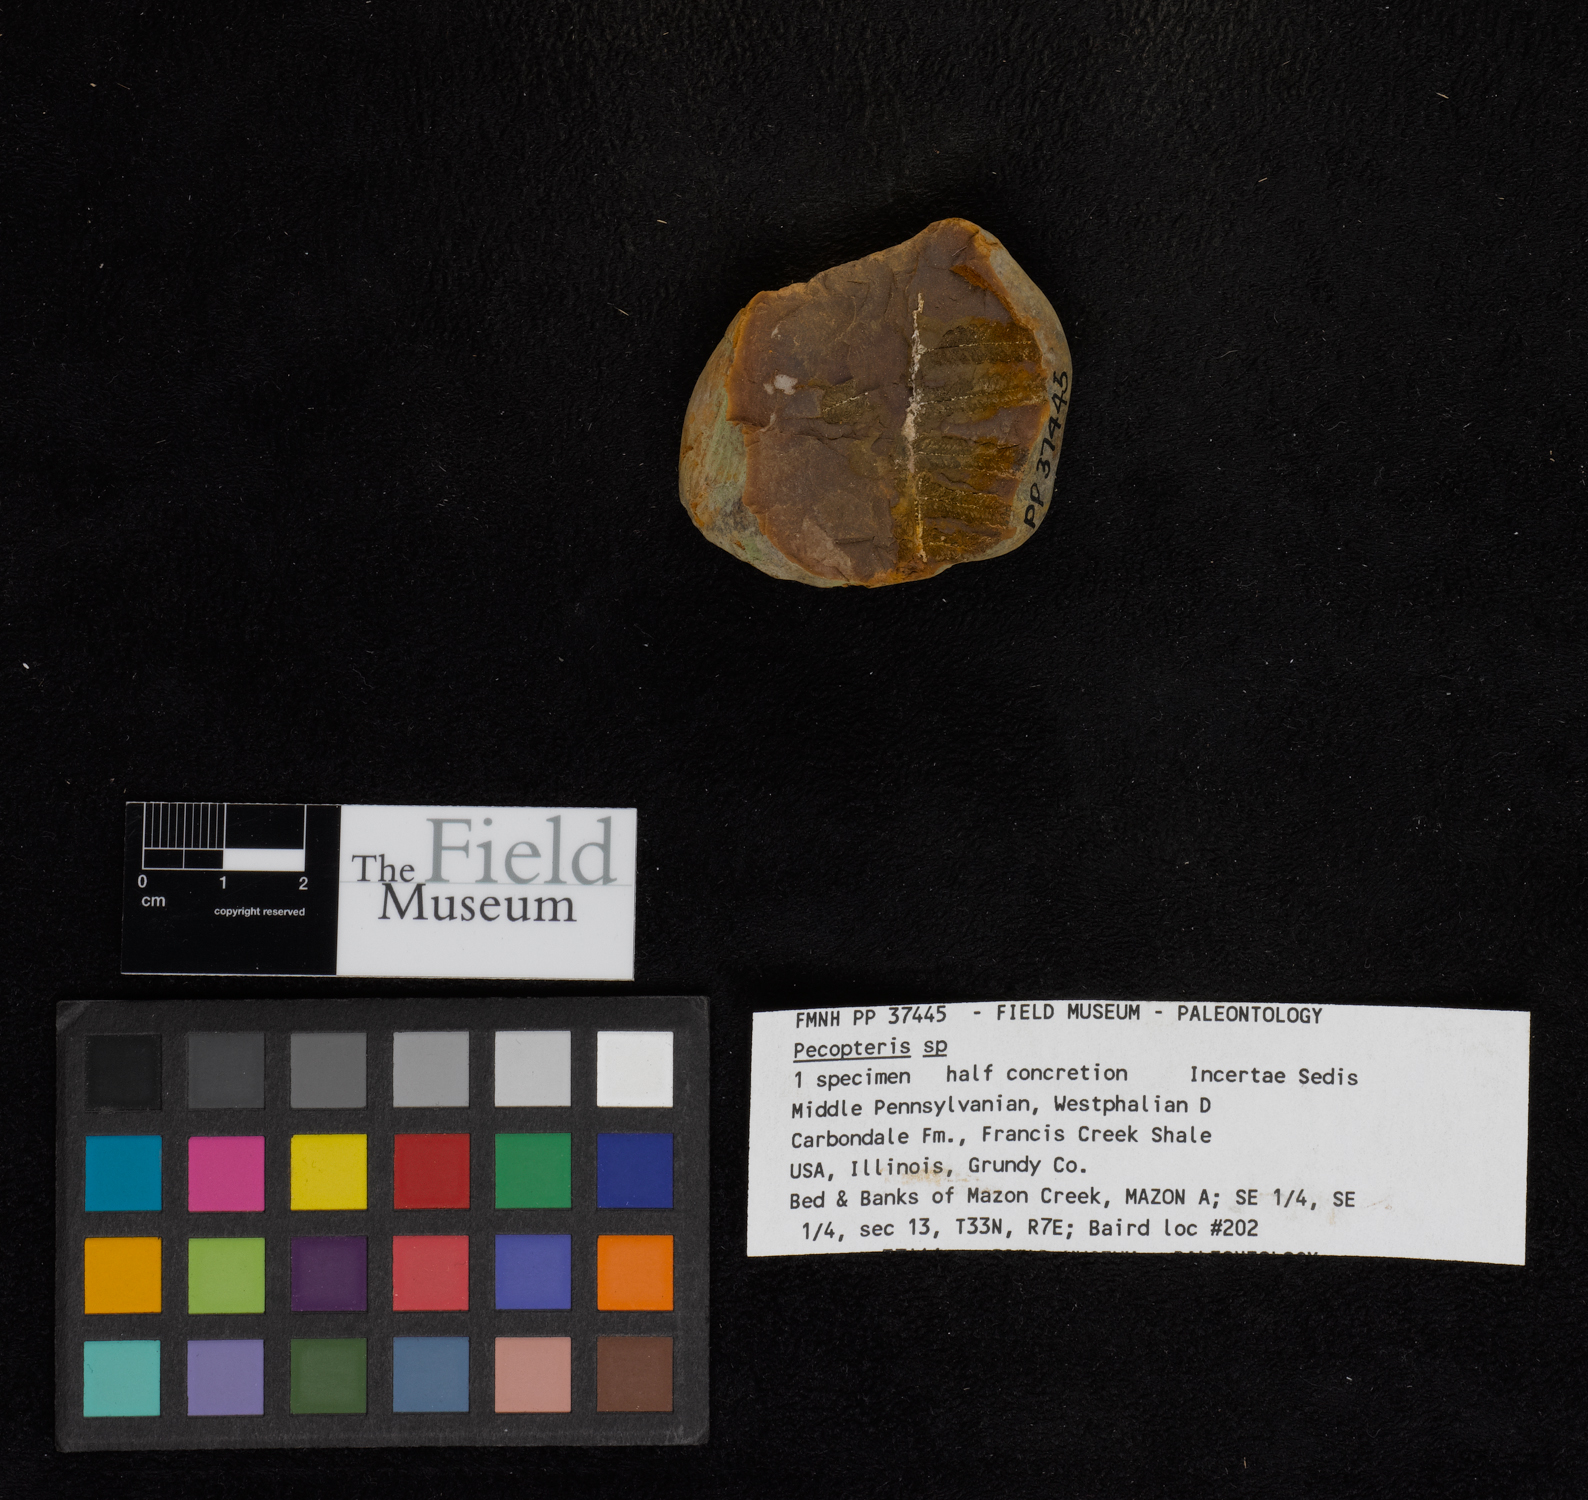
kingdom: Plantae
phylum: Tracheophyta
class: Polypodiopsida
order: Marattiales
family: Asterothecaceae
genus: Pecopteris
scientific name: Pecopteris
